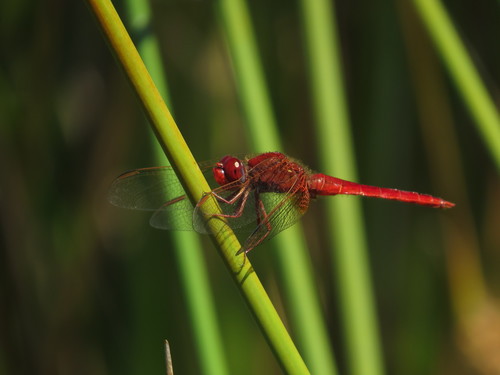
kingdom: Animalia
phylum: Arthropoda
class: Insecta
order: Odonata
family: Libellulidae
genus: Crocothemis
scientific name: Crocothemis erythraea
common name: Scarlet dragonfly
